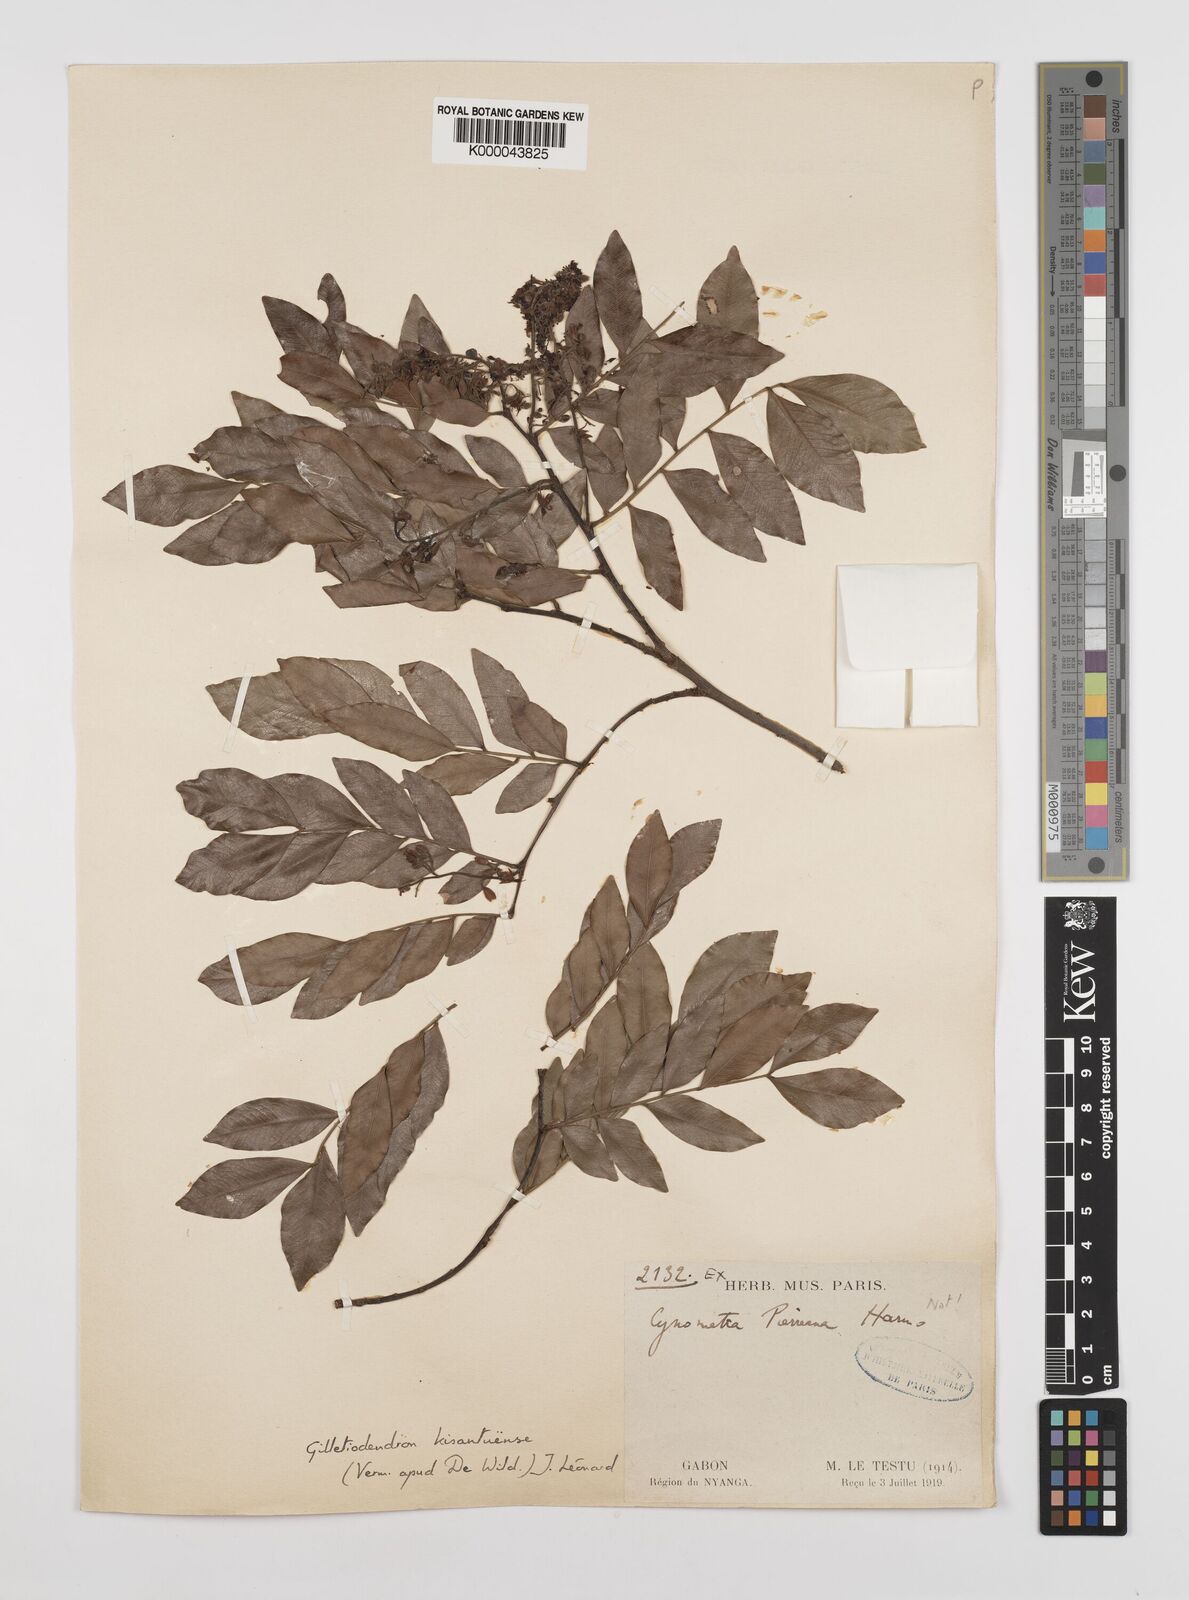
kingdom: Plantae
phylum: Tracheophyta
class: Magnoliopsida
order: Fabales
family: Fabaceae
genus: Guibourtia
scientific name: Guibourtia
